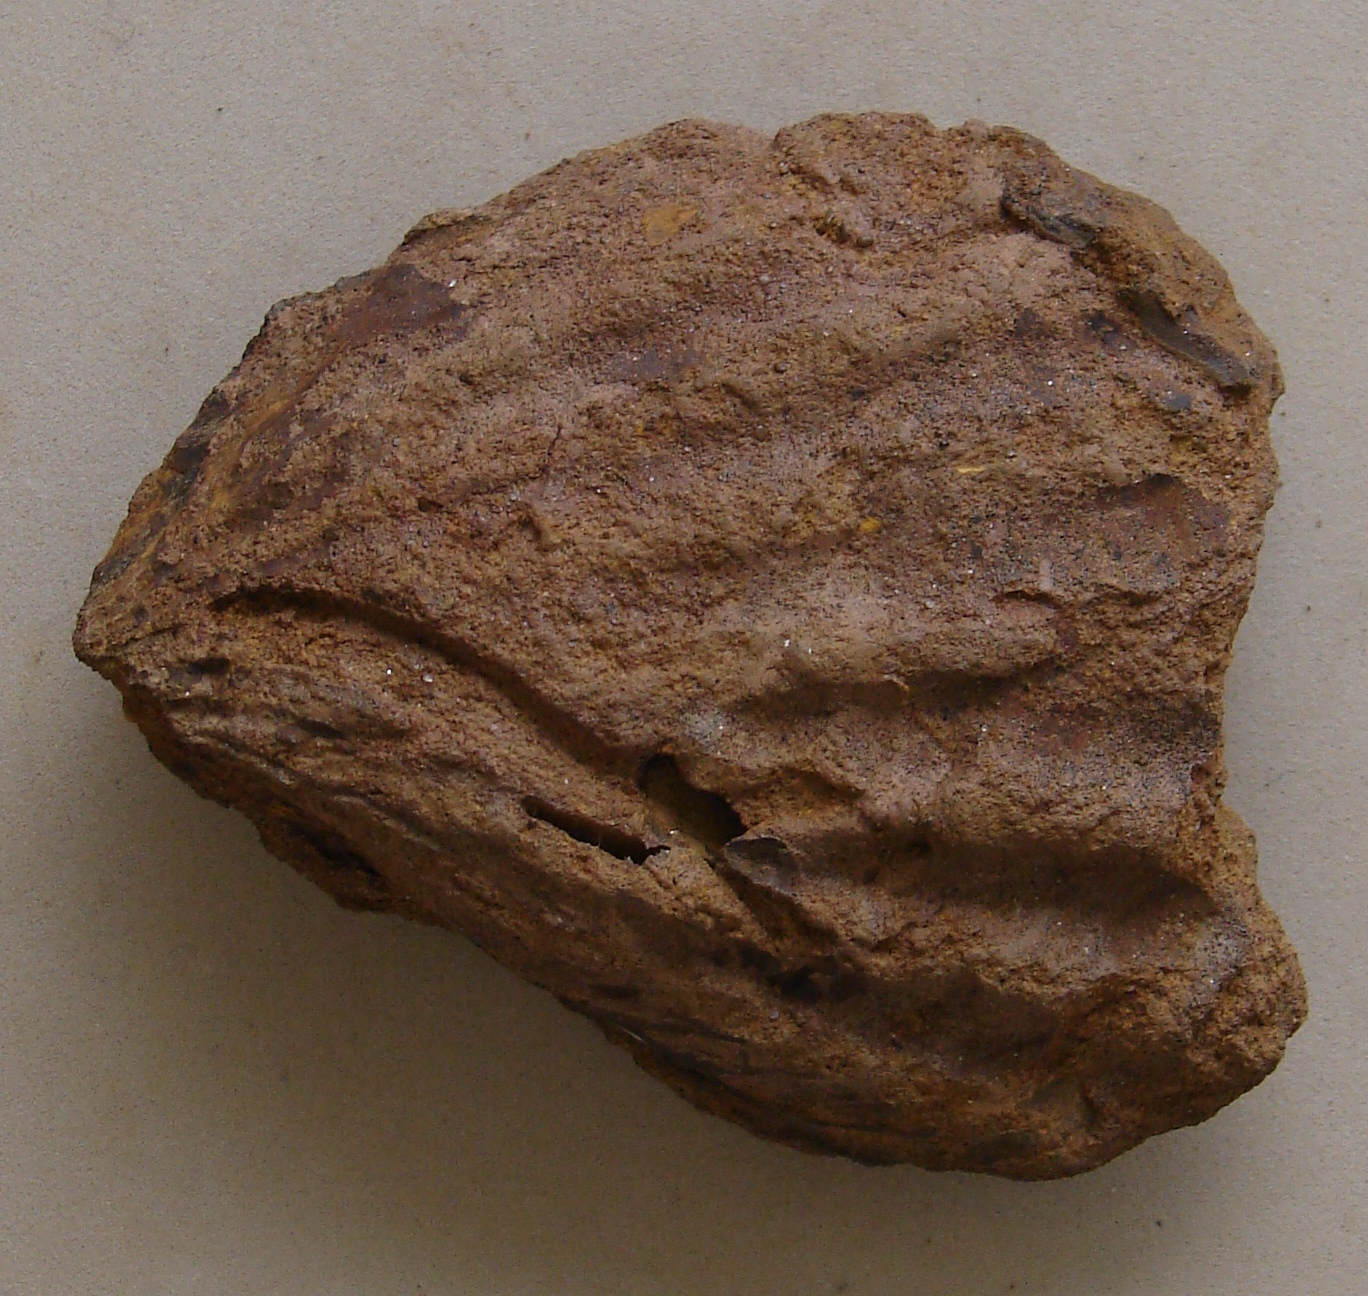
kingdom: Animalia
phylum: Mollusca
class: Bivalvia
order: Limida
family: Limidae
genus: Ctenostreon
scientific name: Ctenostreon Lima rugosum
